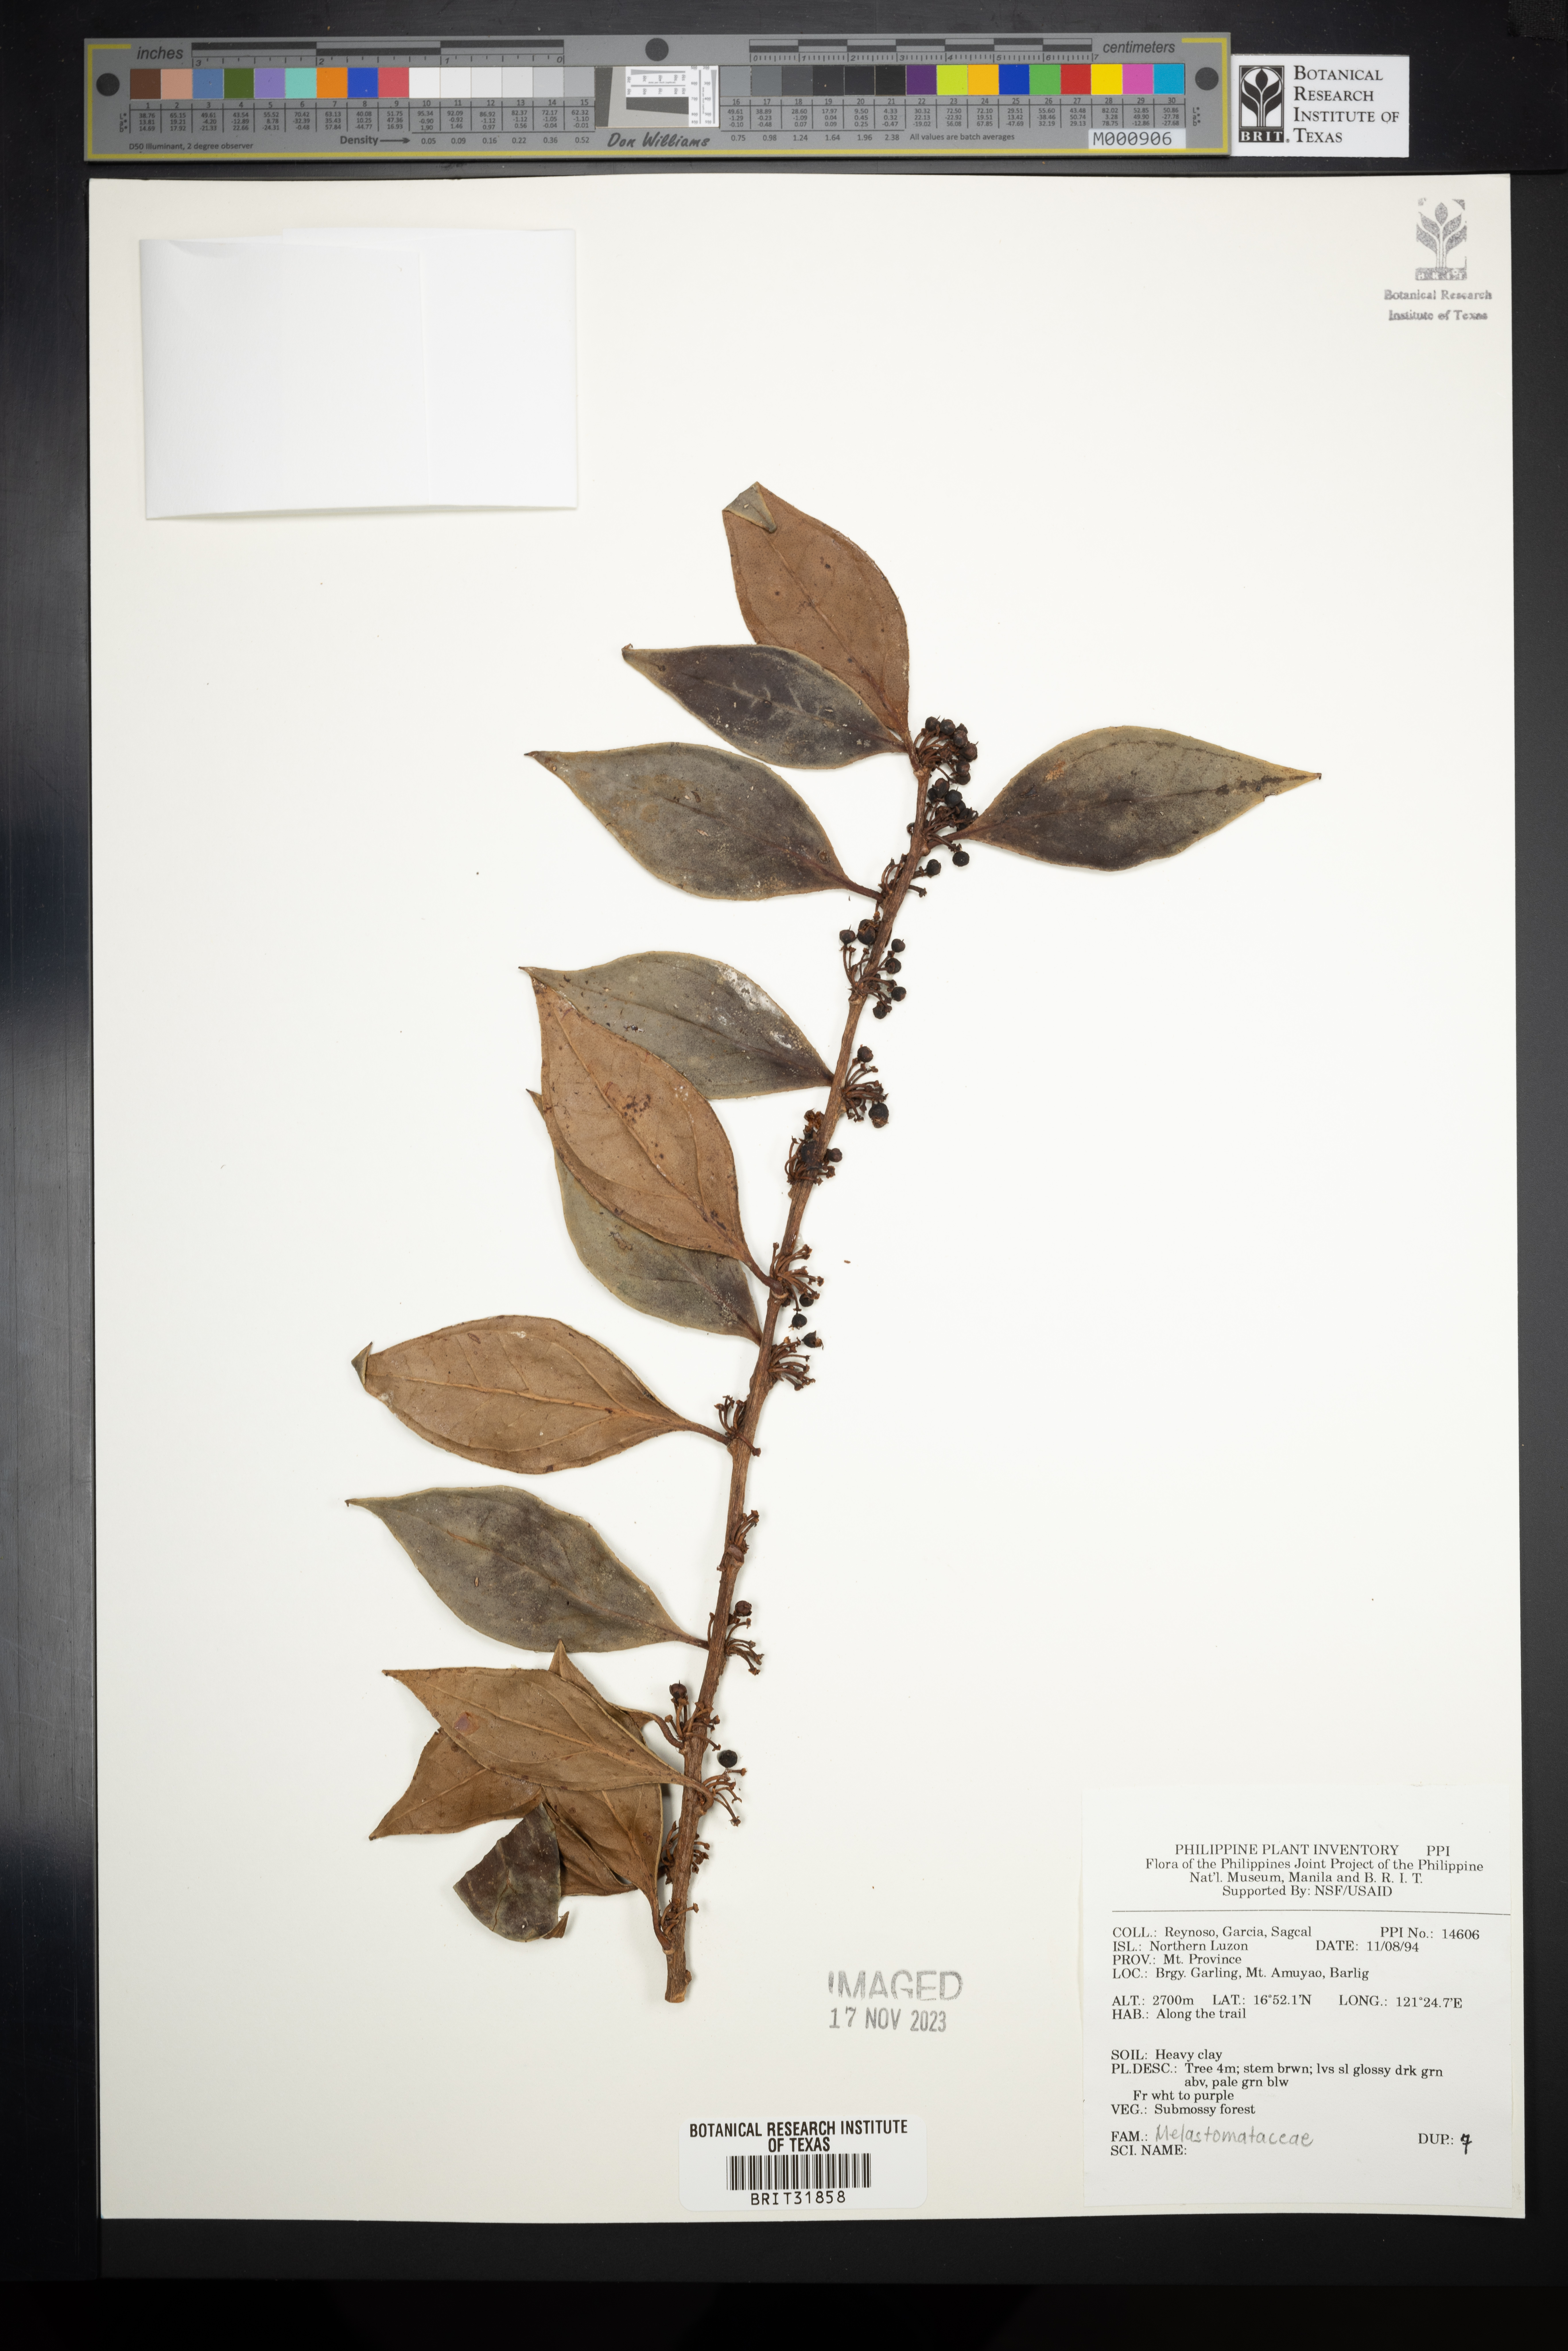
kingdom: Plantae
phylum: Tracheophyta
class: Magnoliopsida
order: Myrtales
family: Melastomataceae
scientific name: Melastomataceae
